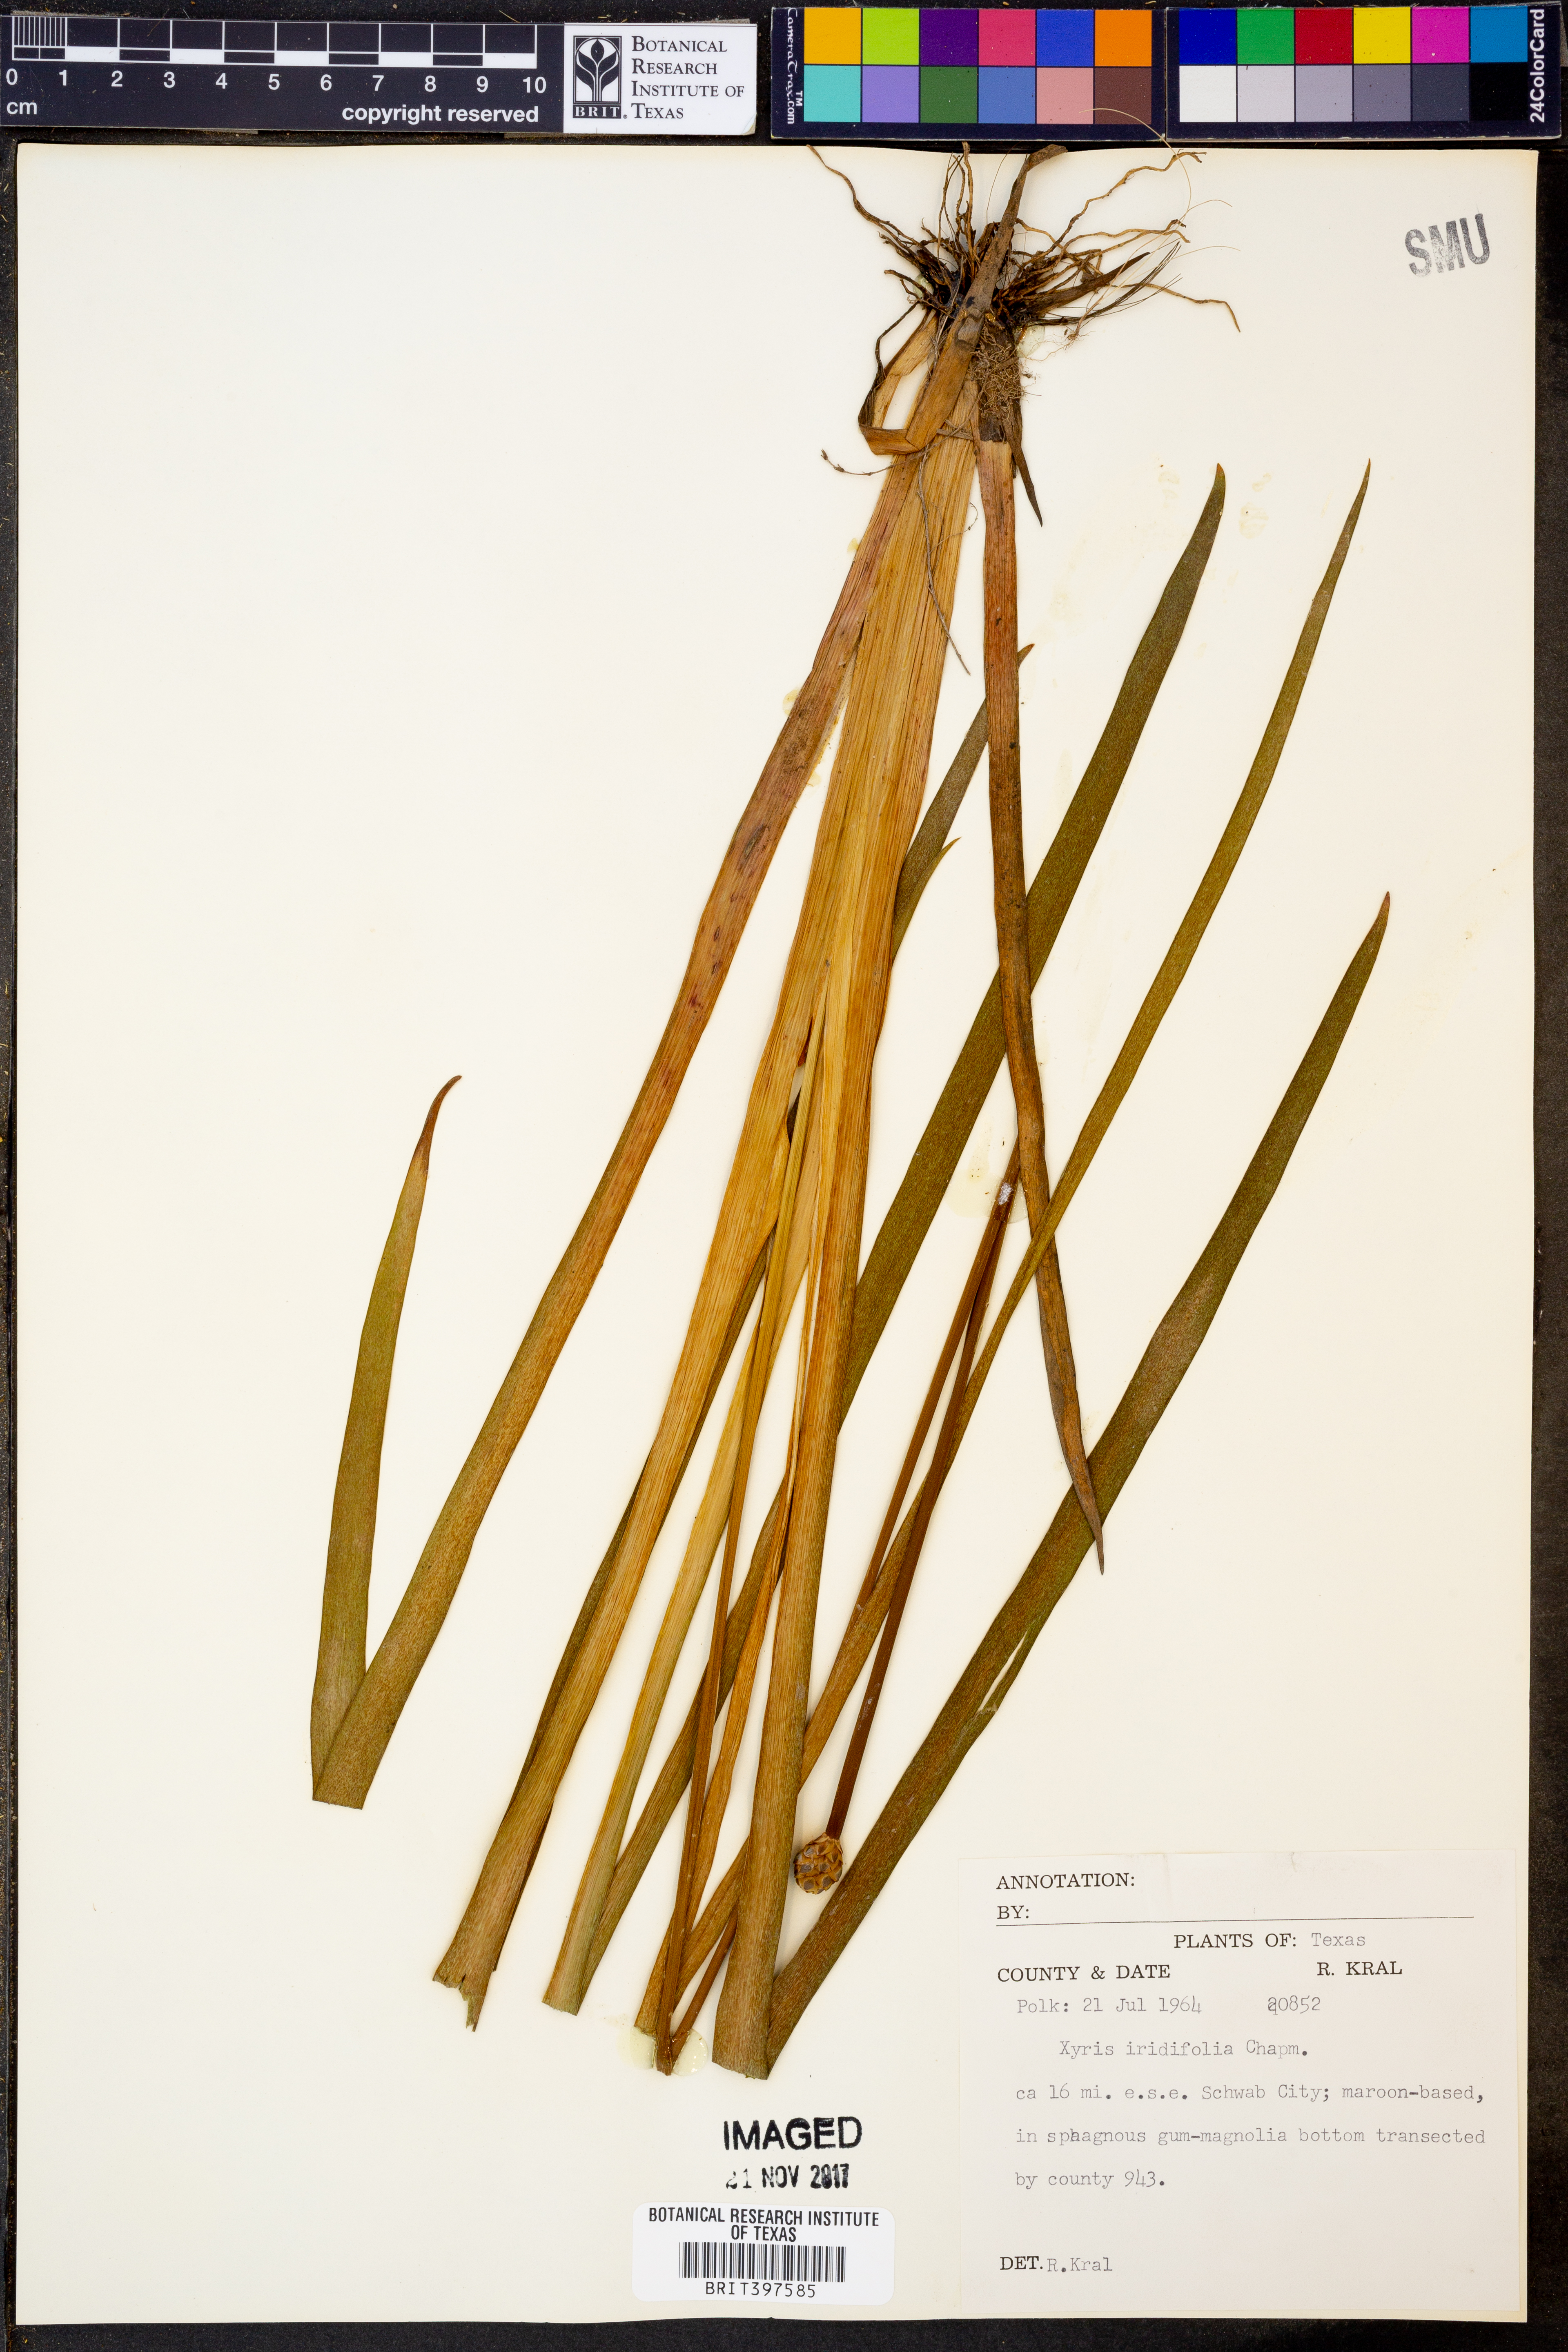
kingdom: Plantae
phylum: Tracheophyta
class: Liliopsida
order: Poales
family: Xyridaceae
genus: Xyris
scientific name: Xyris laxifolia
